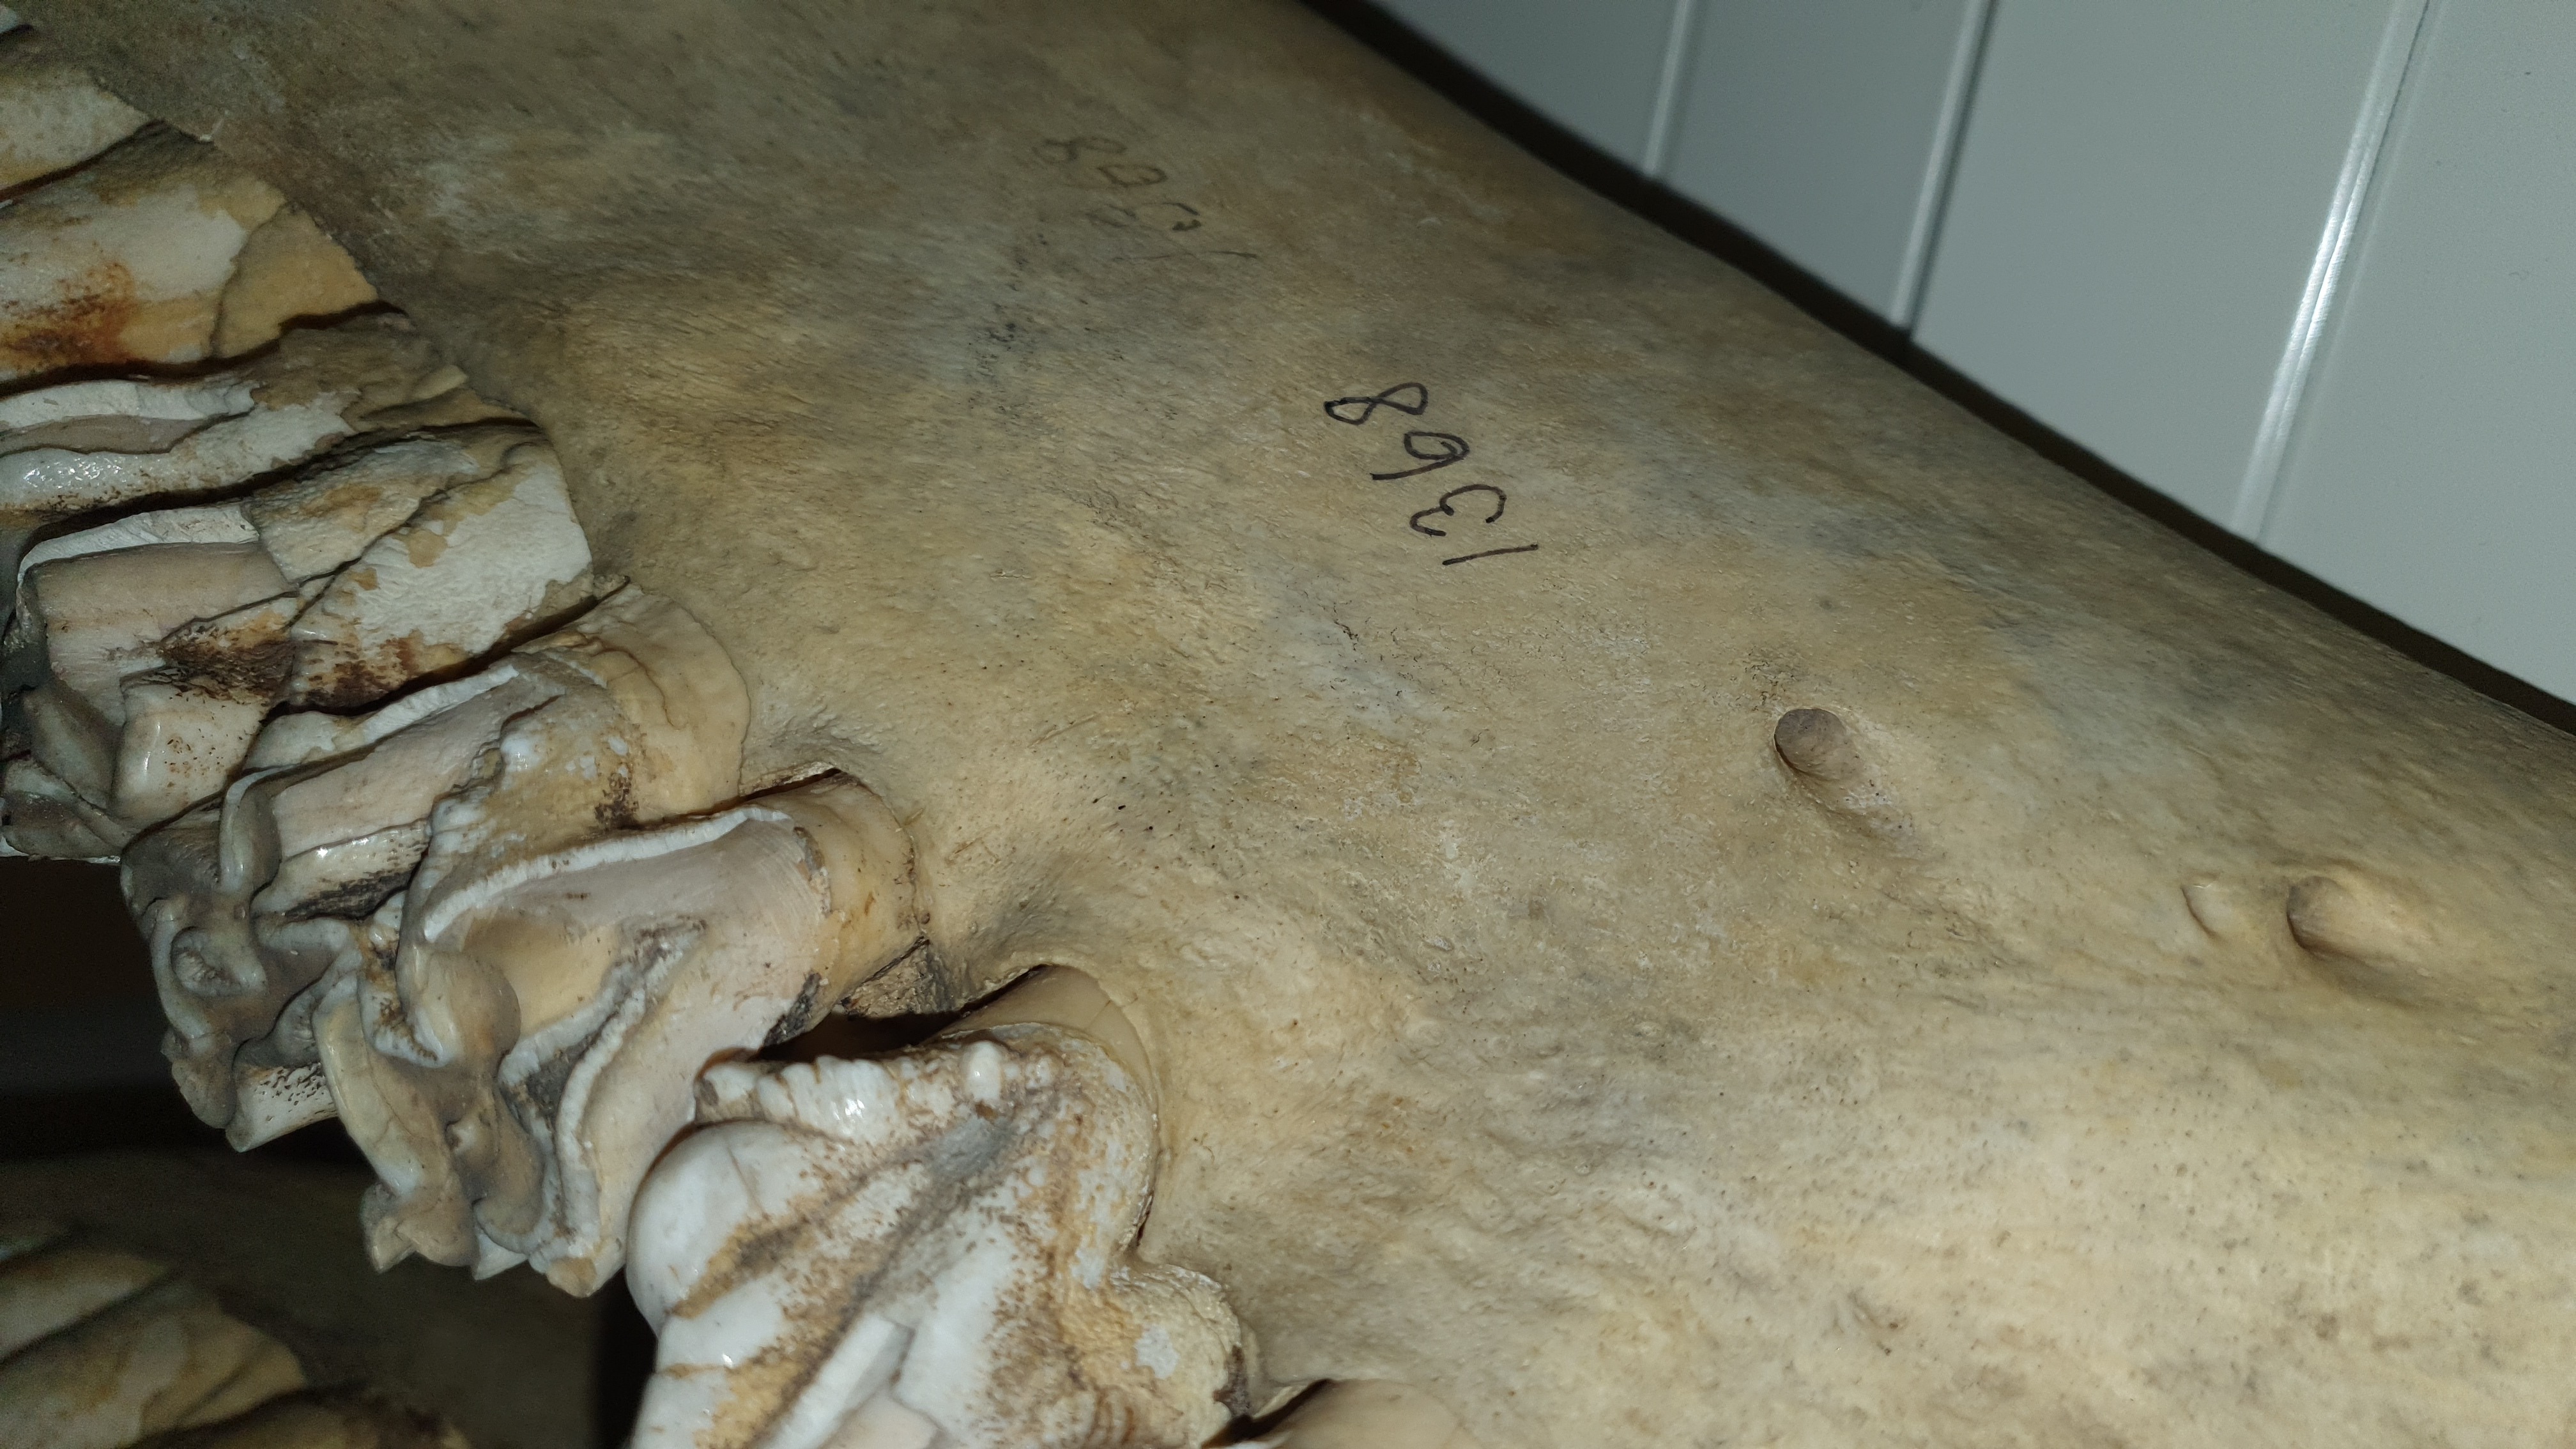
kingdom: Animalia
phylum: Chordata
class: Mammalia
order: Artiodactyla
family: Hippopotamidae
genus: Hippopotamus
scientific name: Hippopotamus amphibius
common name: Common hippopotamus
